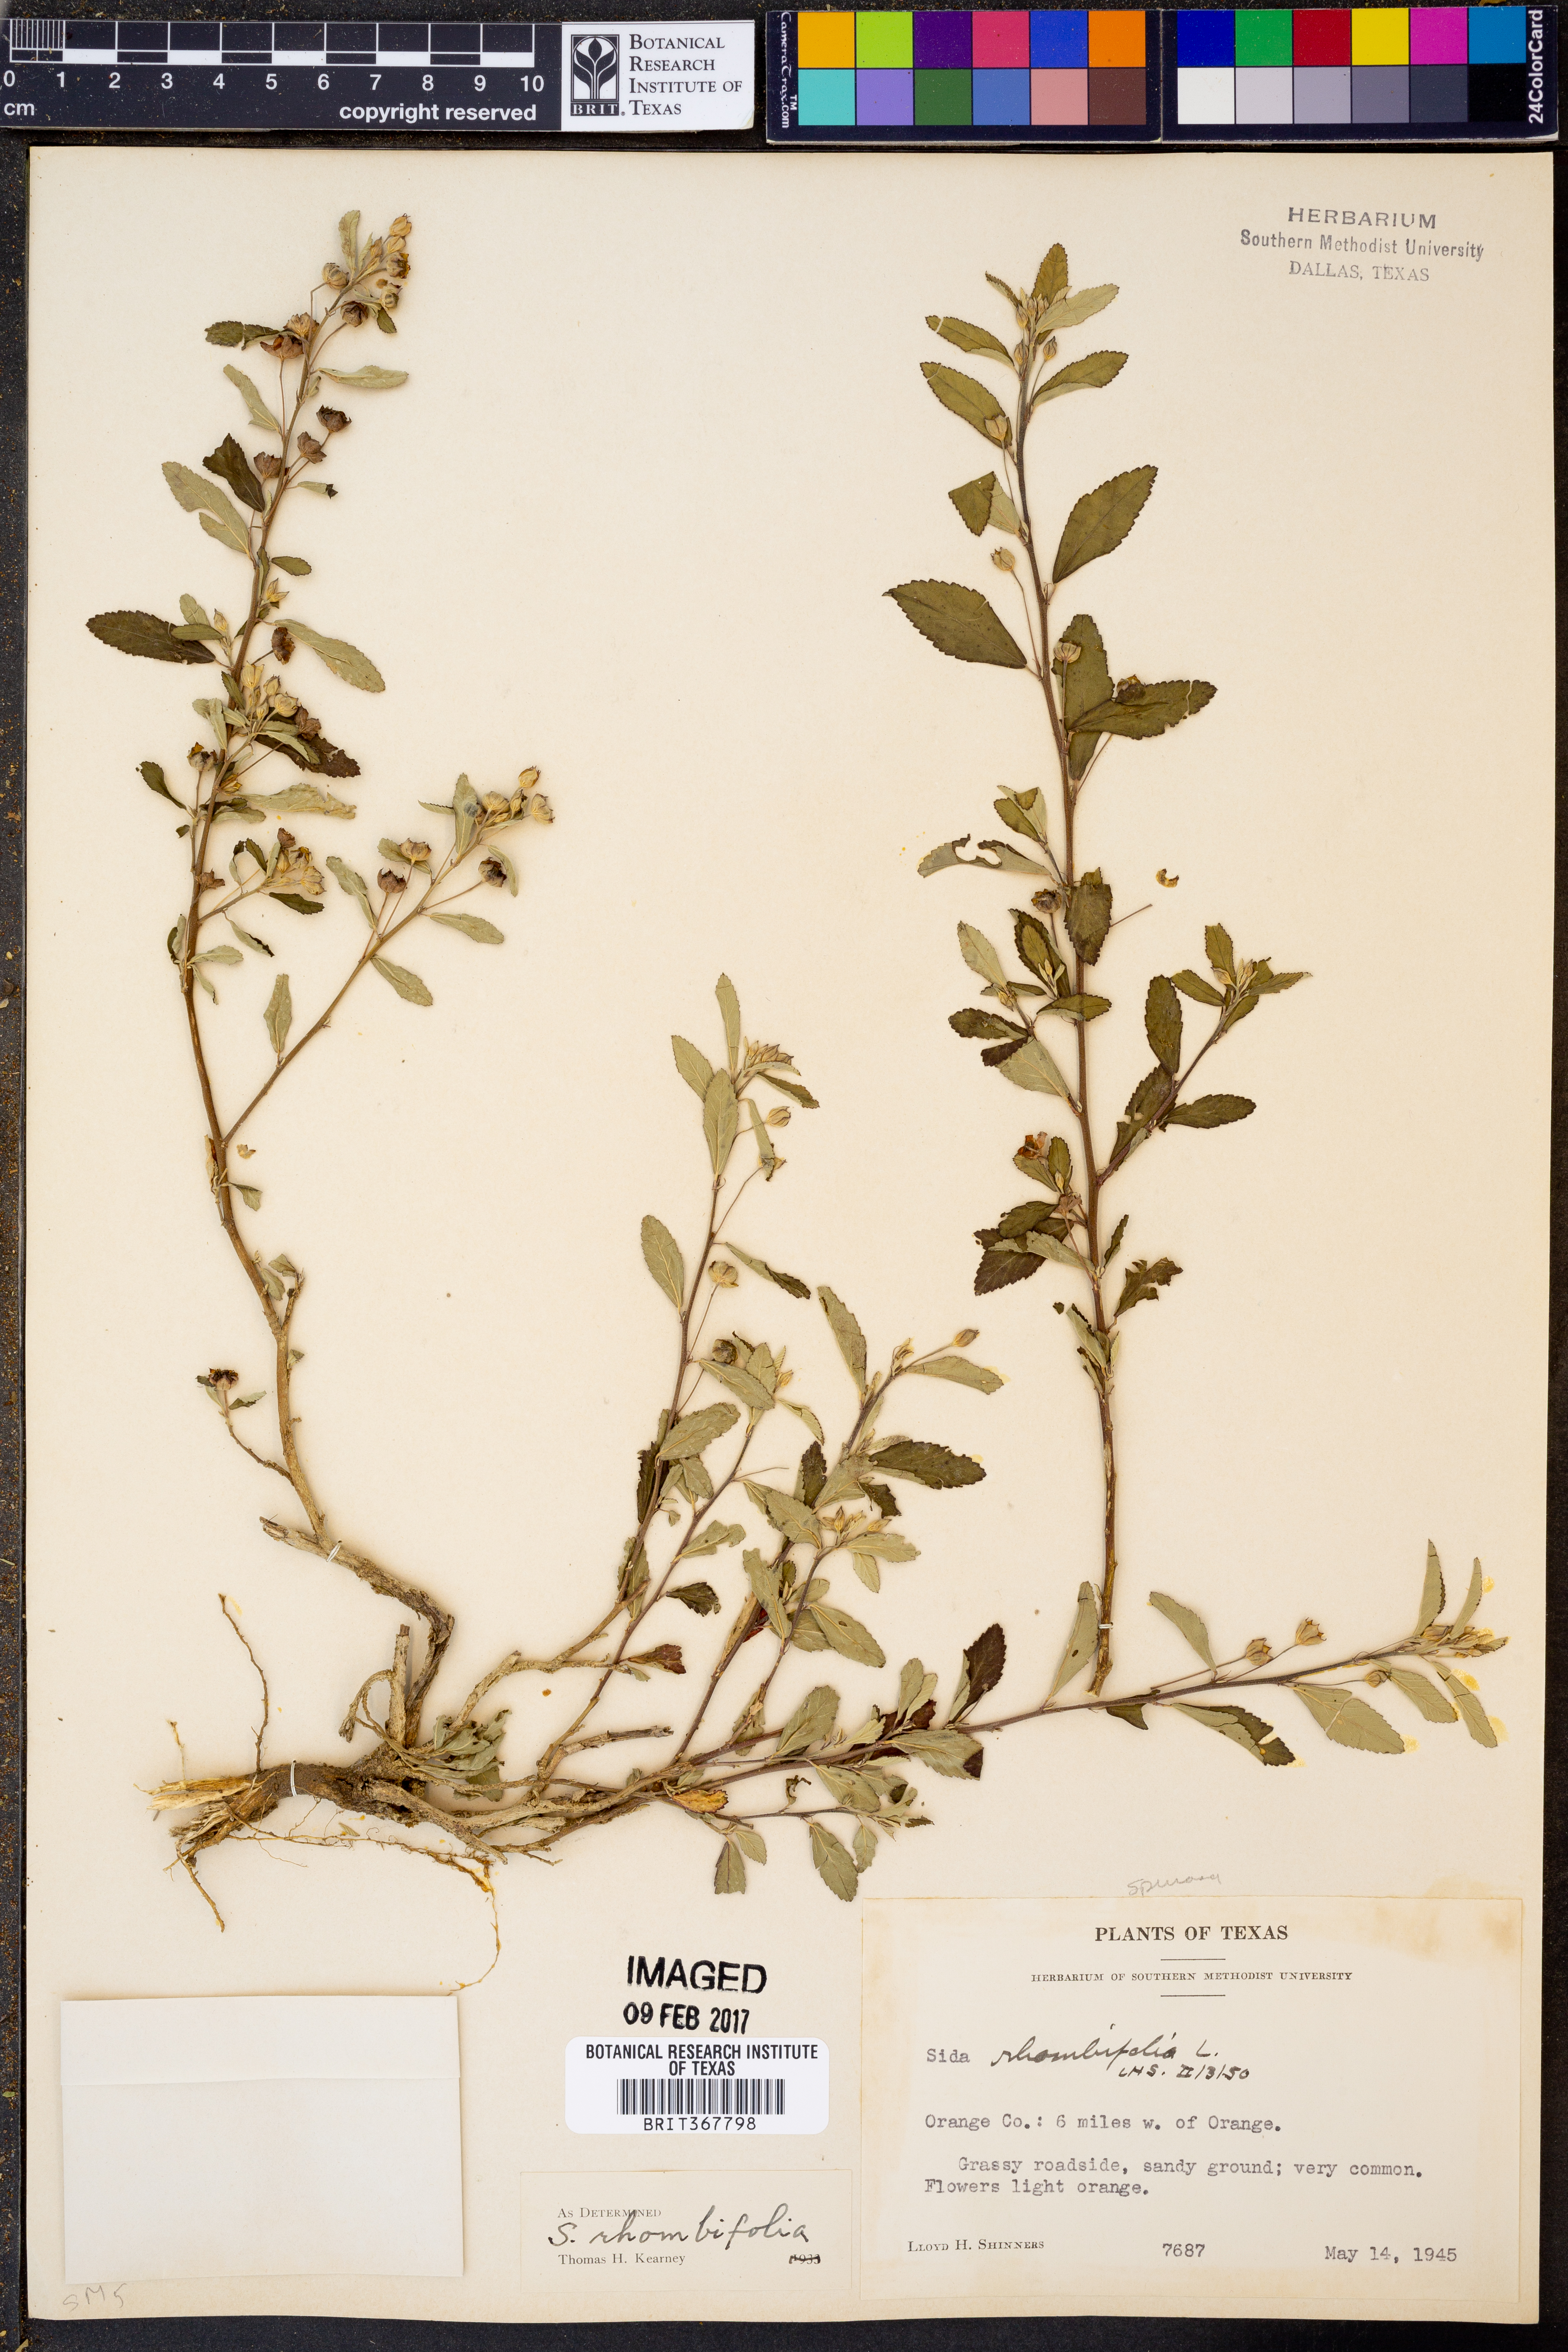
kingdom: Plantae
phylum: Tracheophyta
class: Magnoliopsida
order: Malvales
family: Malvaceae
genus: Sida
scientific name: Sida rhombifolia
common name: Queensland-hemp
